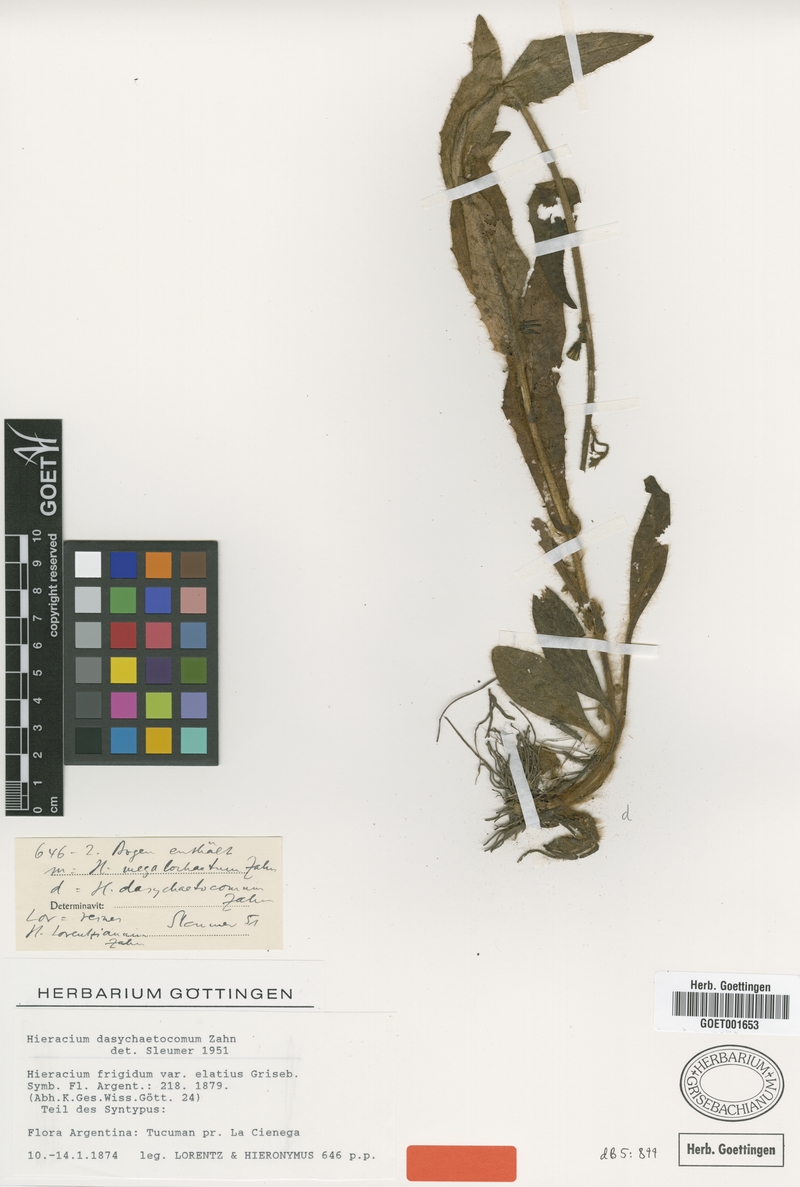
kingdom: Plantae
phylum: Tracheophyta
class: Magnoliopsida
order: Asterales
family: Asteraceae
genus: Hieracium
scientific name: Hieracium dasychaetocomum
